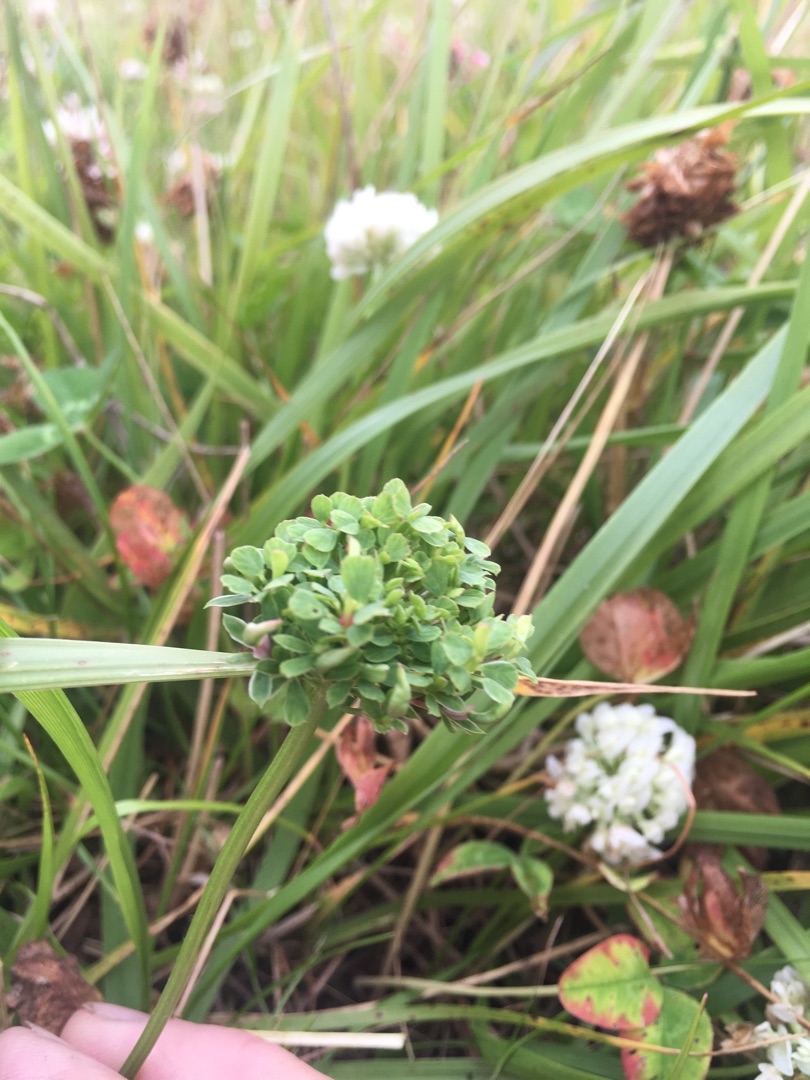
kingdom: Plantae
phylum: Tracheophyta
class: Magnoliopsida
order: Fabales
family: Fabaceae
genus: Trifolium
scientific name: Trifolium repens
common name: Hvid-kløver
